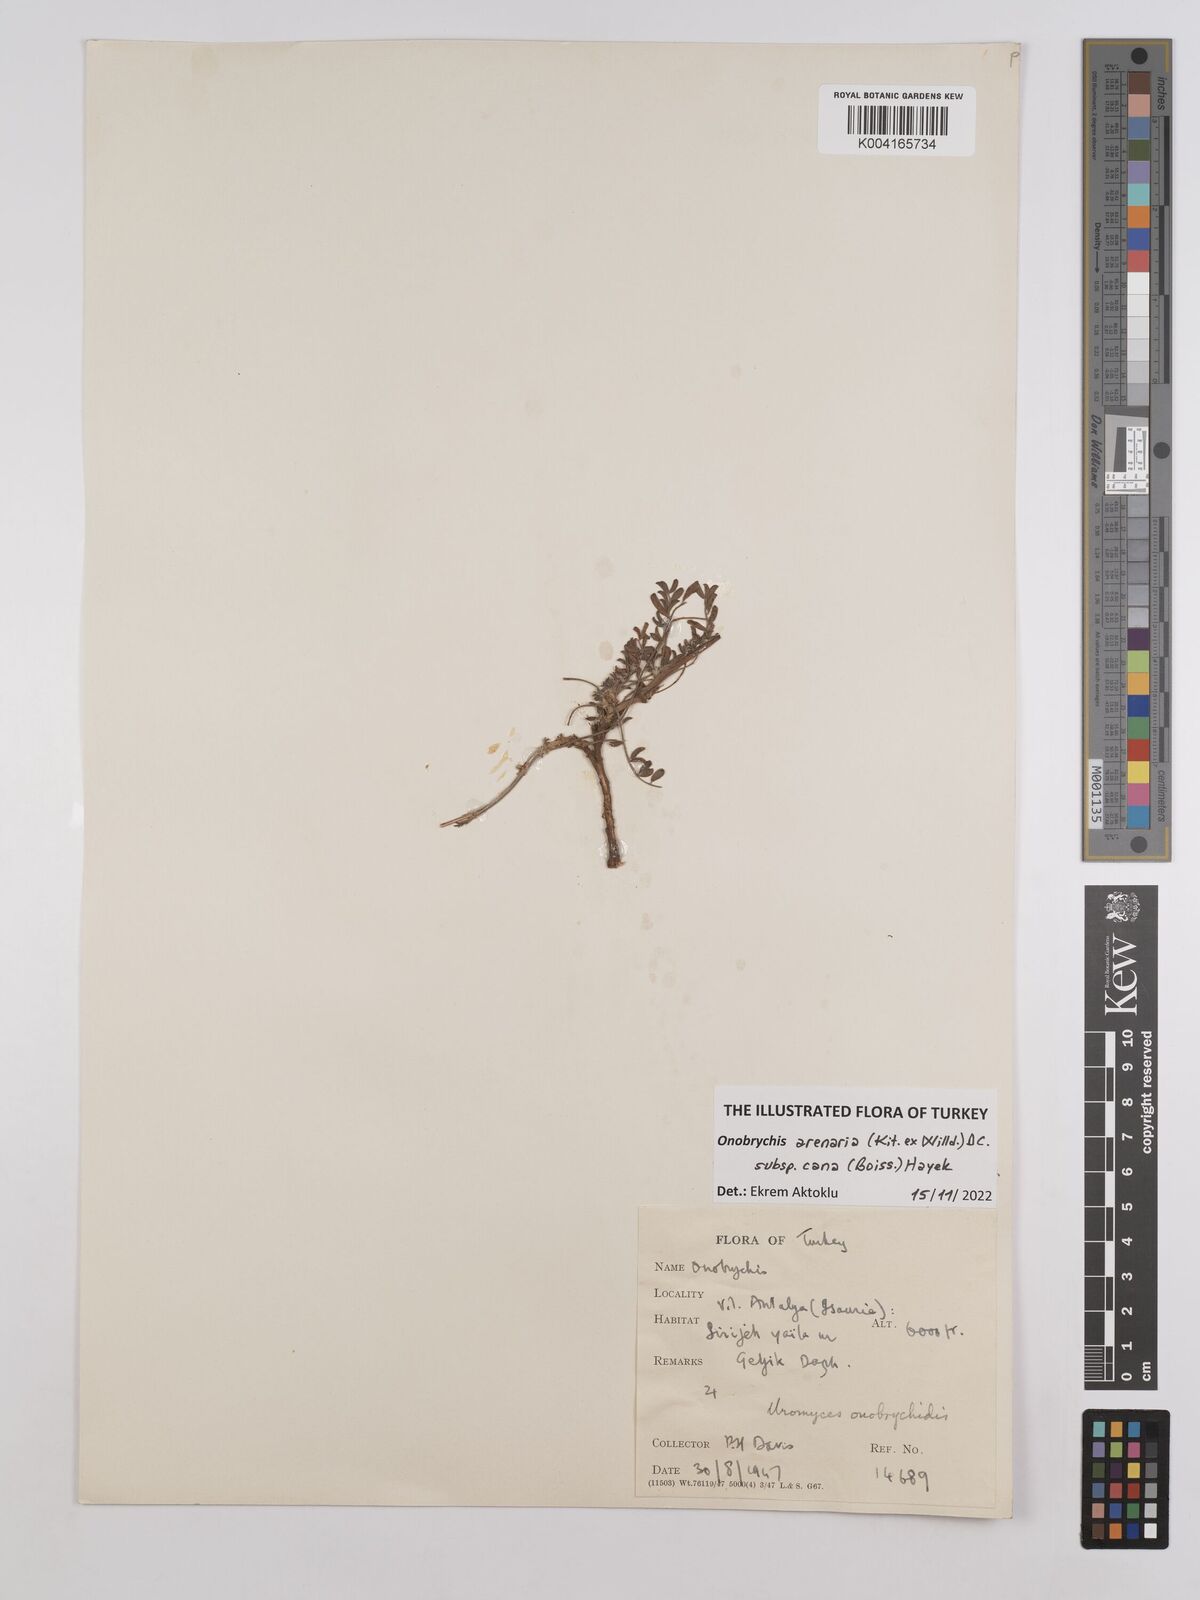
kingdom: Plantae
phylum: Tracheophyta
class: Magnoliopsida
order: Fabales
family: Fabaceae
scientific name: Fabaceae
